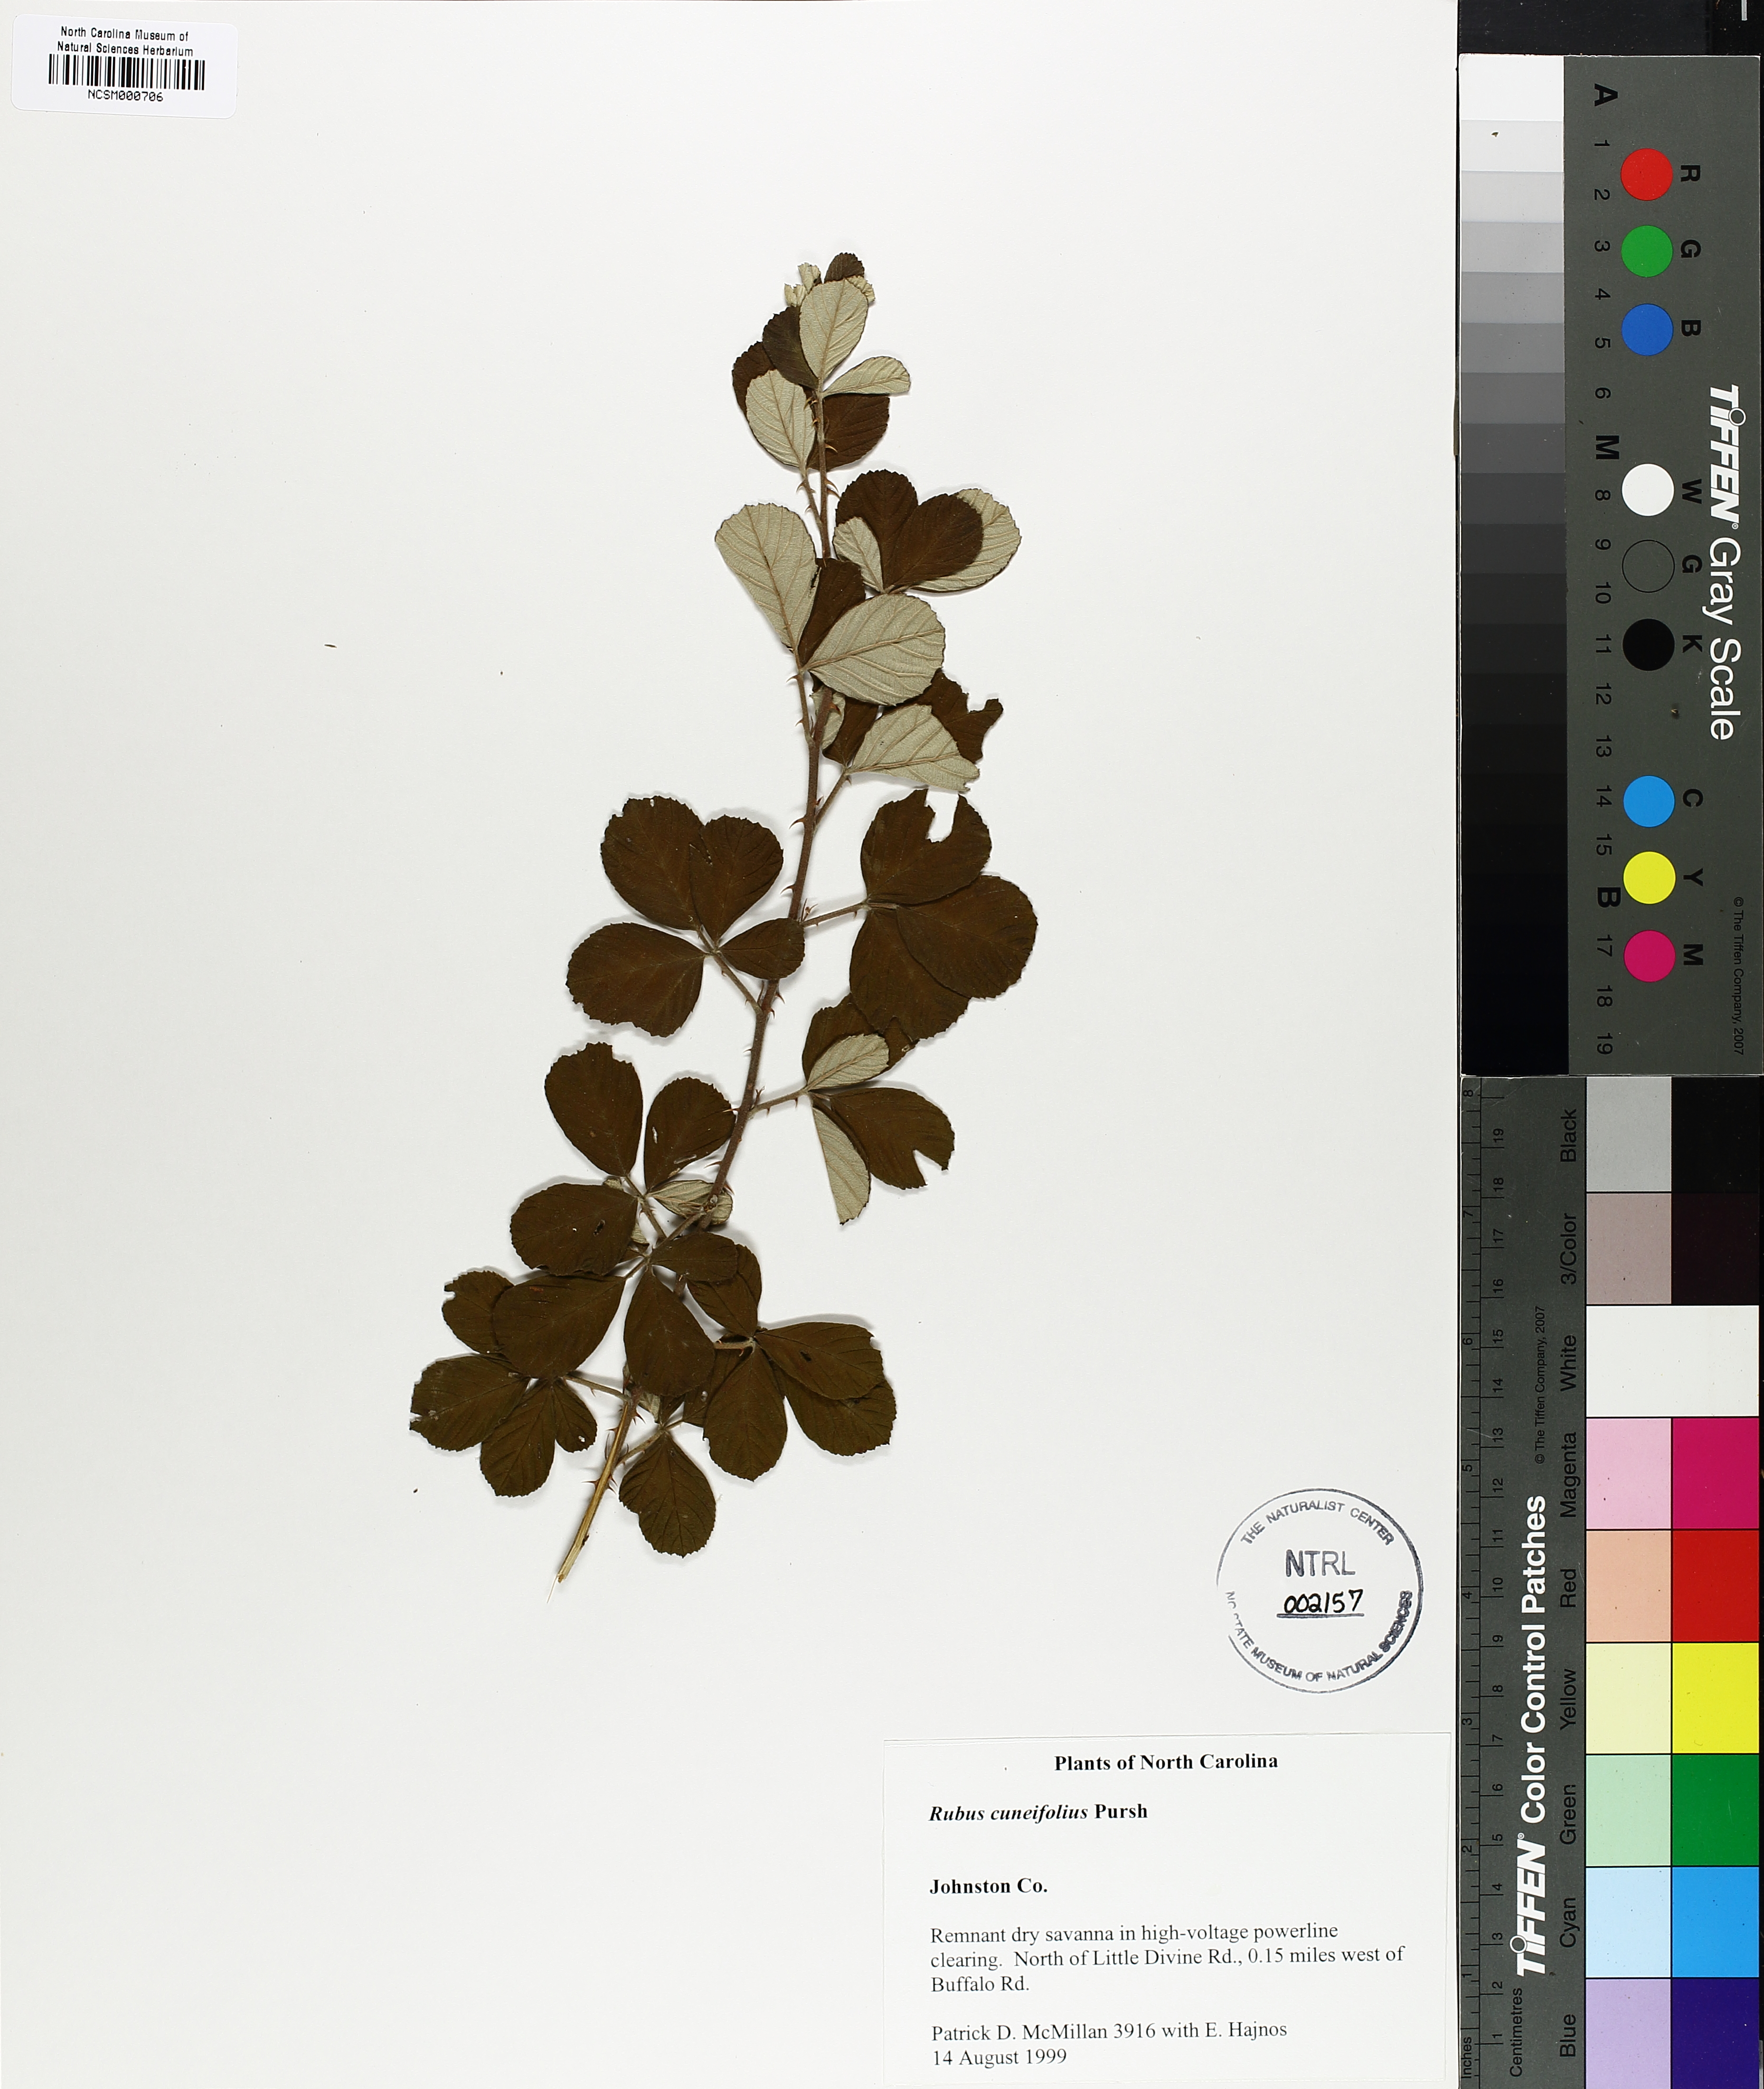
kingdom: Plantae
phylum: Tracheophyta
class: Magnoliopsida
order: Rosales
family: Rosaceae
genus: Rubus
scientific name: Rubus cuneifolius
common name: American bramble
